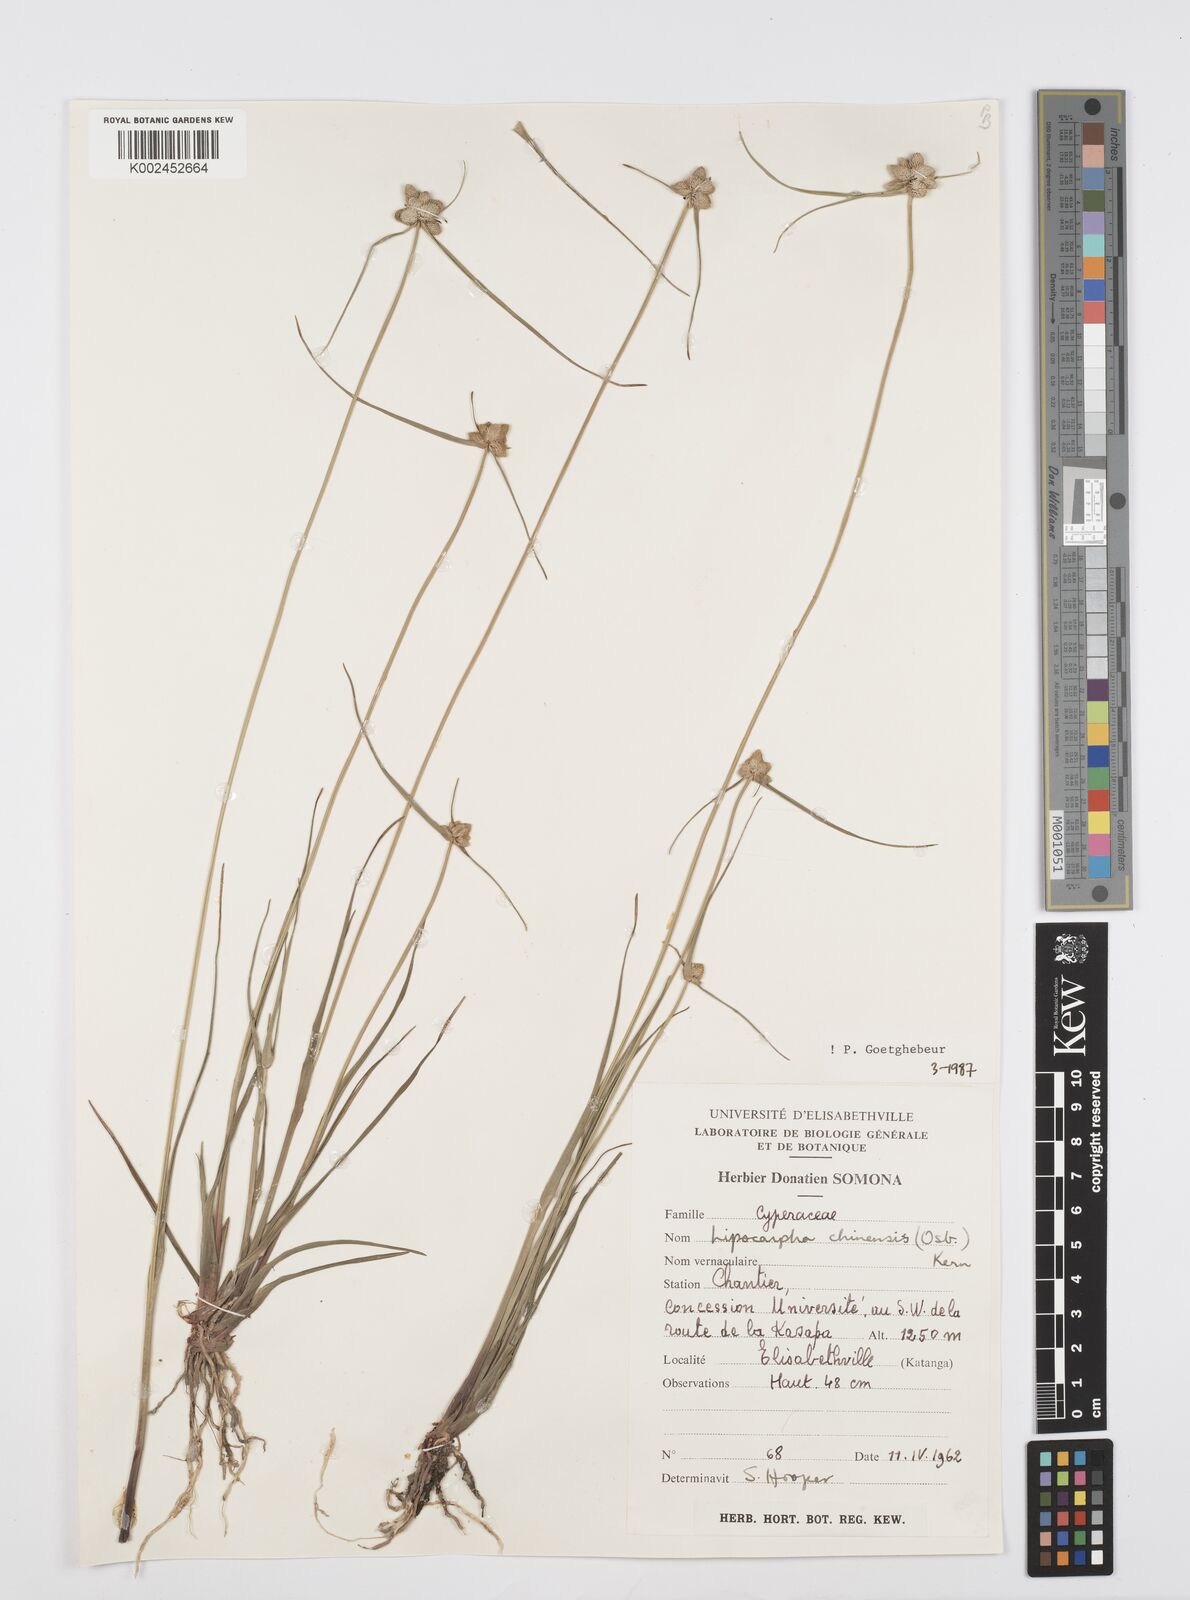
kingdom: Plantae
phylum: Tracheophyta
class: Liliopsida
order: Poales
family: Cyperaceae
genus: Cyperus
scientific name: Cyperus albescens
